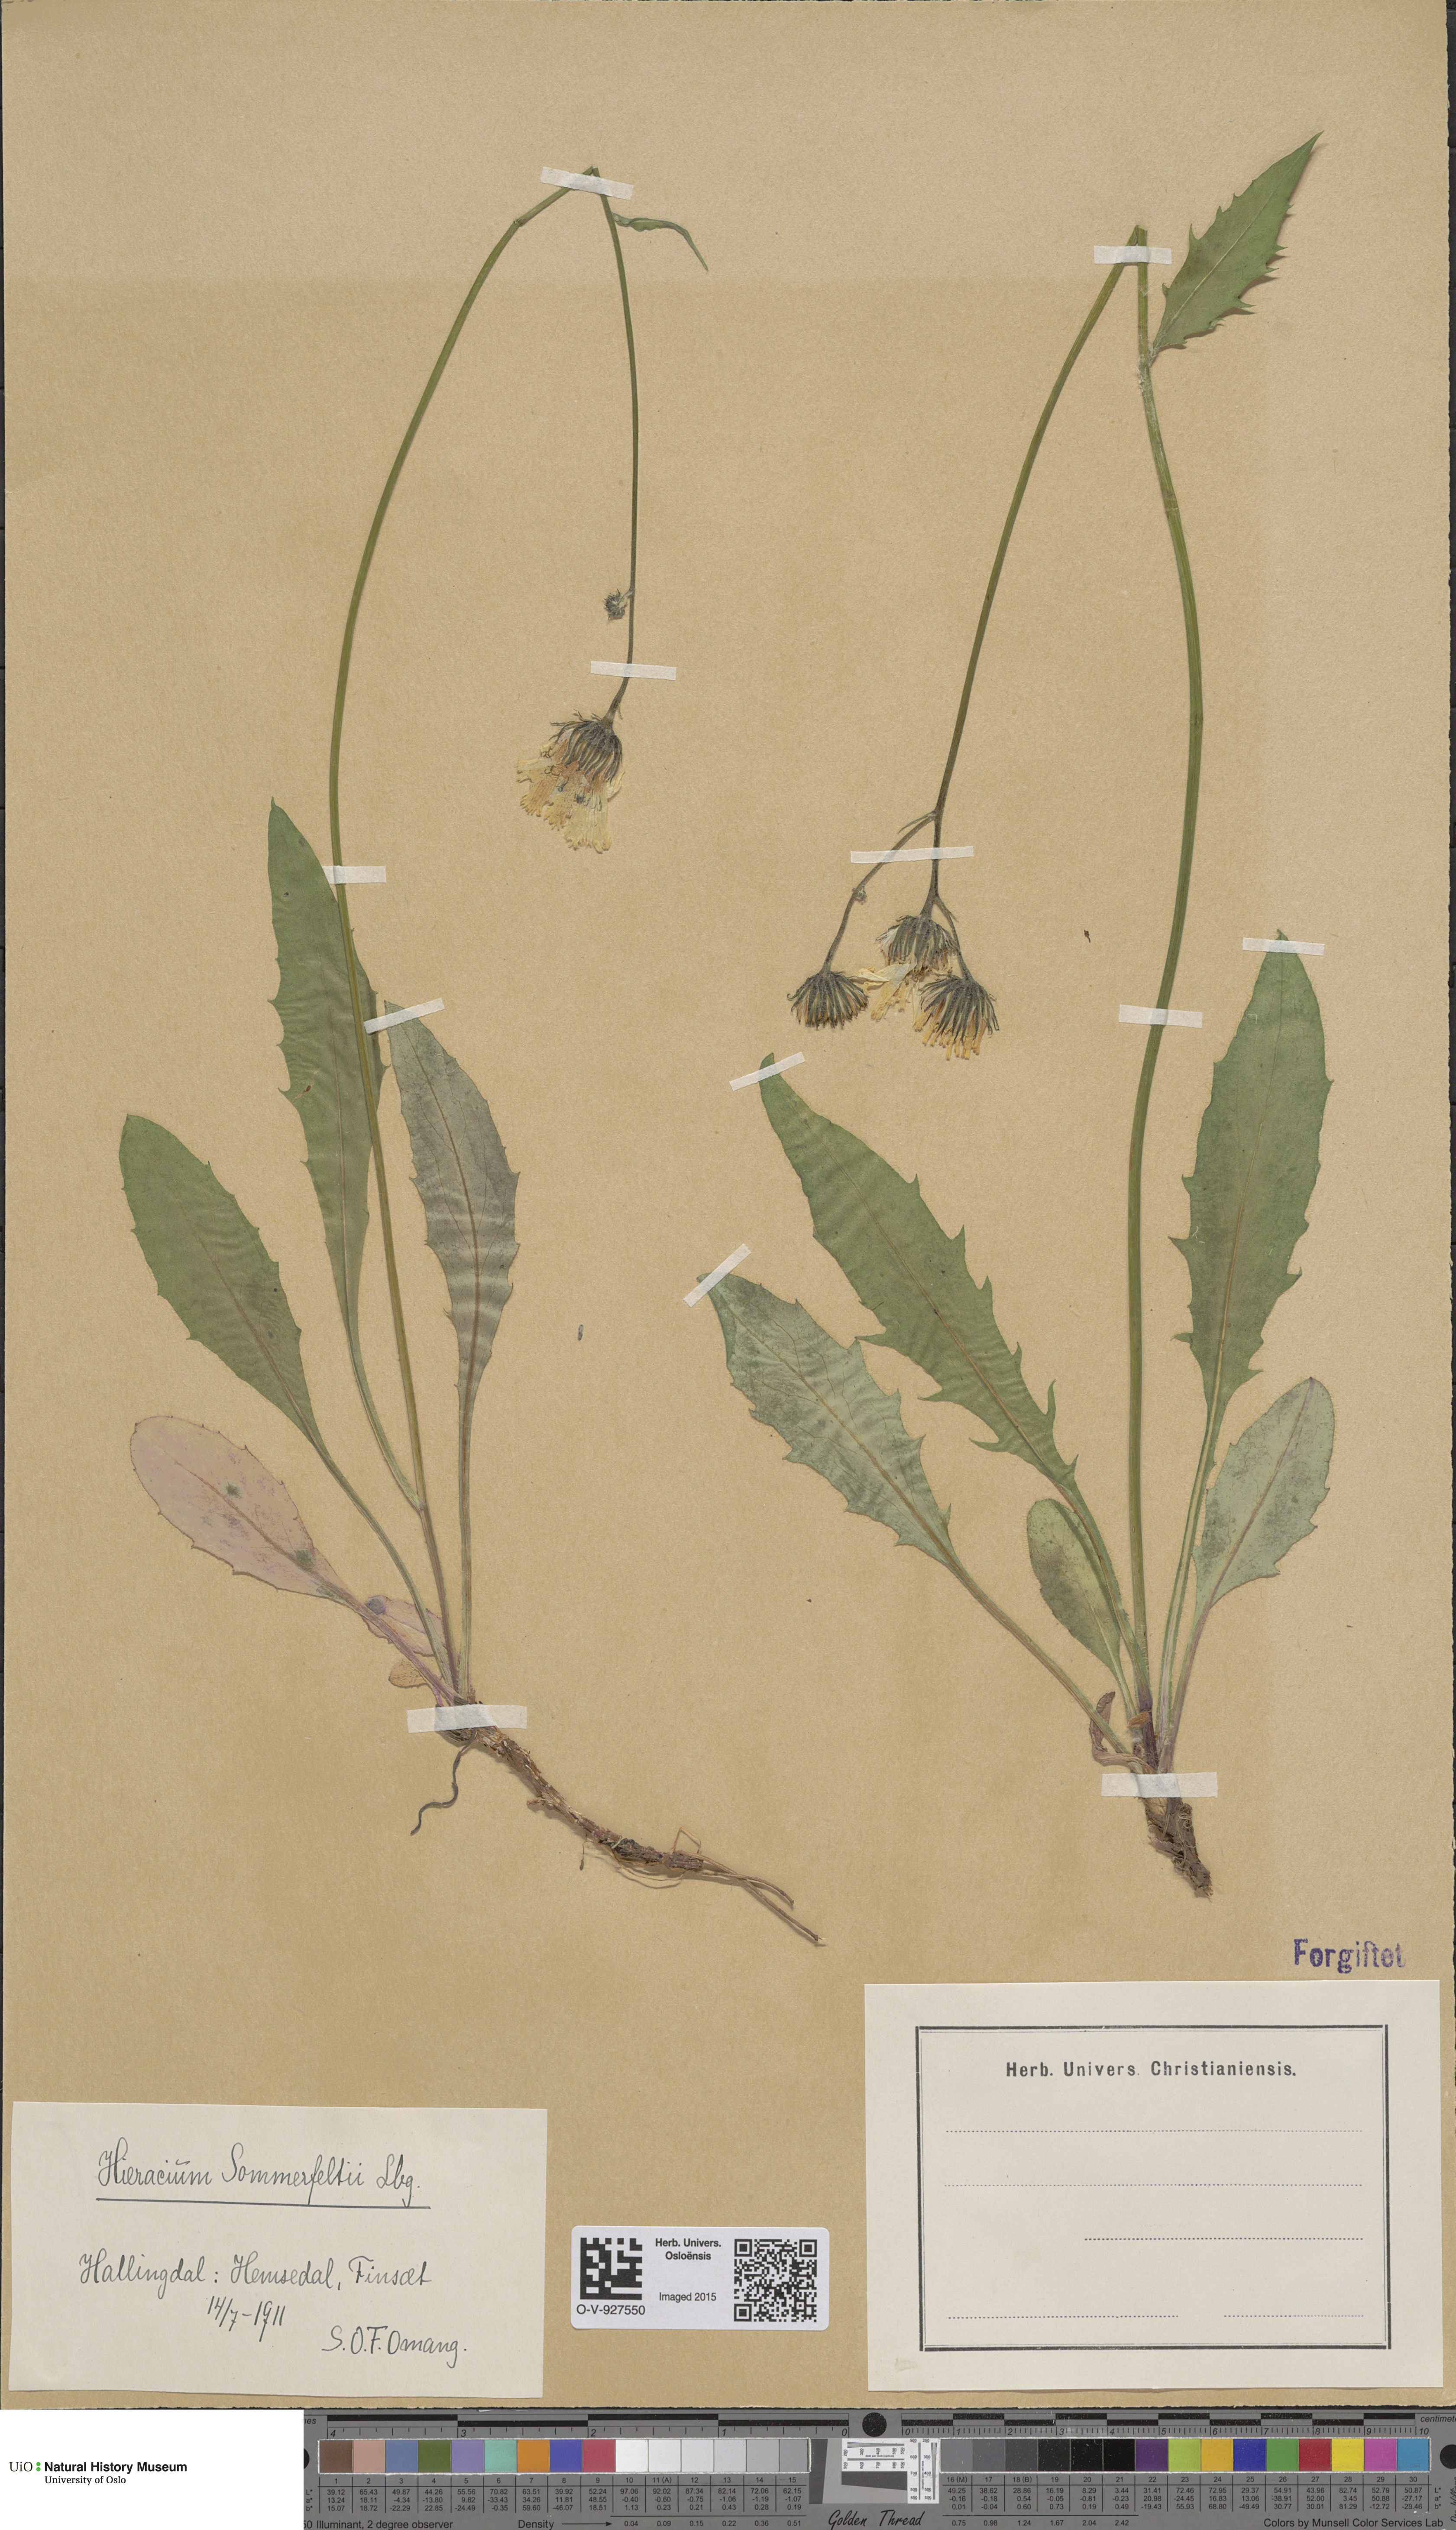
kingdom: Plantae
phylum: Tracheophyta
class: Magnoliopsida
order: Asterales
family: Asteraceae
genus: Hieracium
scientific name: Hieracium sommerfeltii
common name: Sommerfelt's hawkweed
